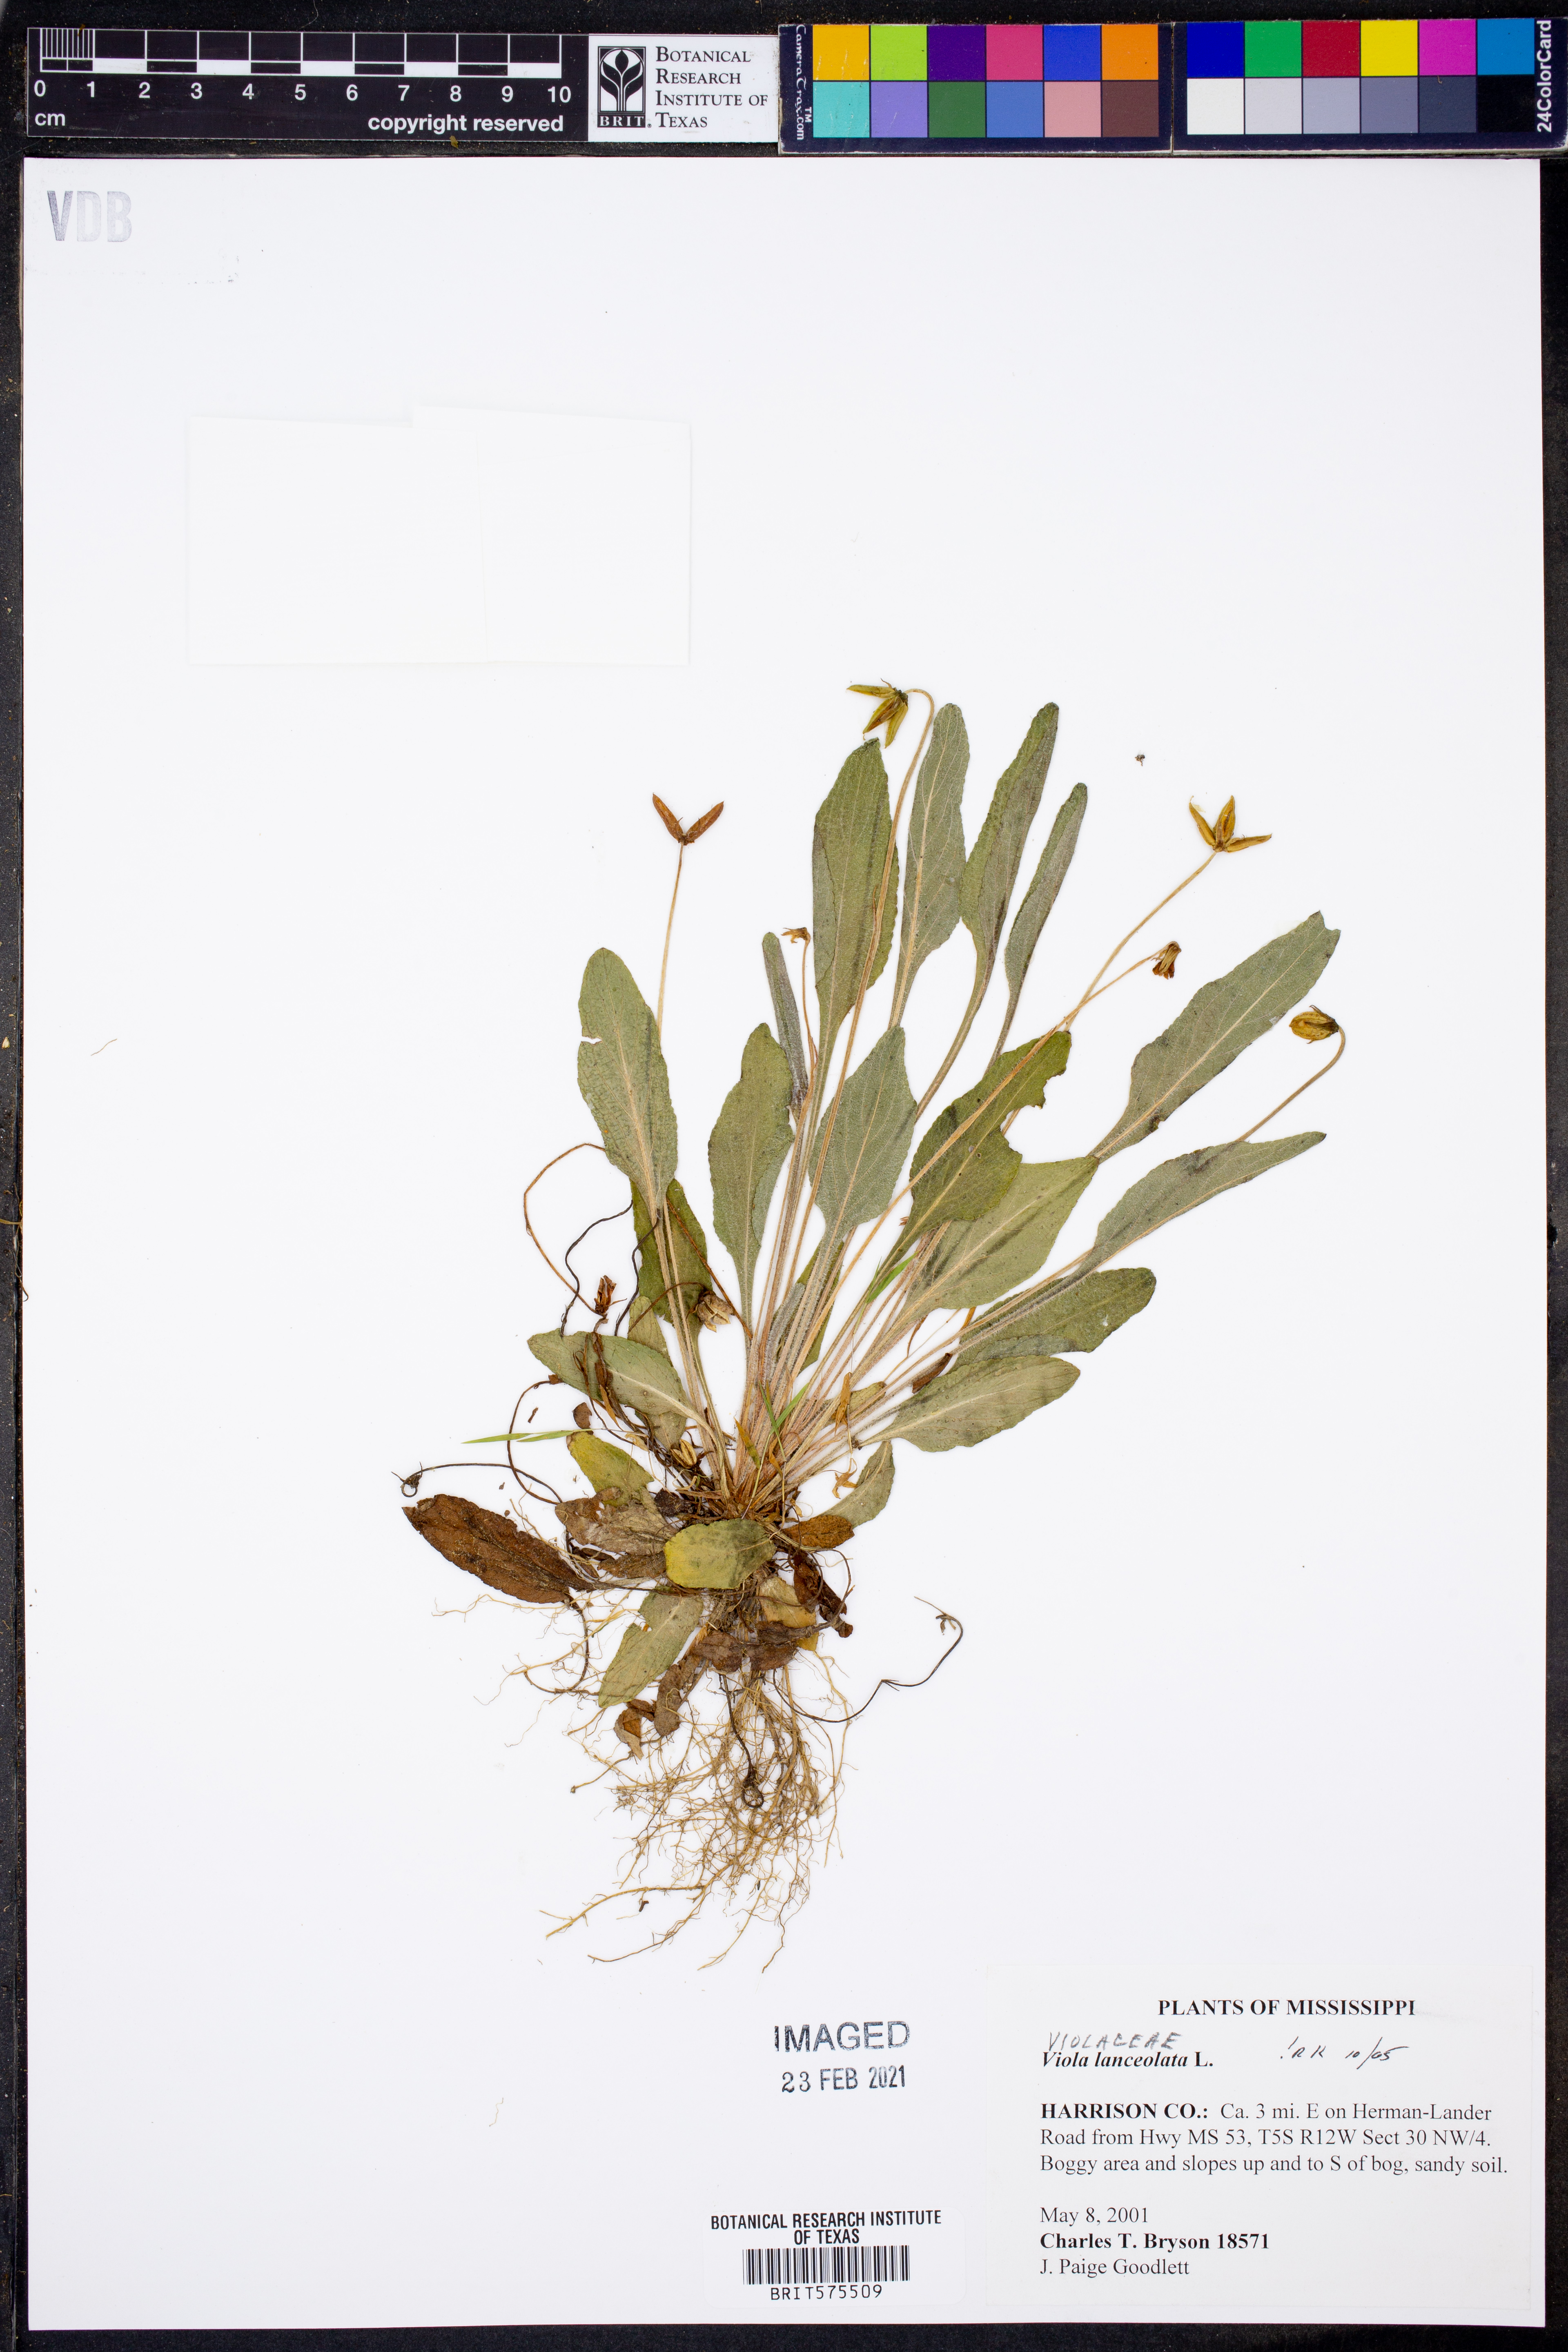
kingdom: Plantae
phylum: Tracheophyta
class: Magnoliopsida
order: Malpighiales
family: Violaceae
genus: Viola
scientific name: Viola lanceolata
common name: Bog white violet
